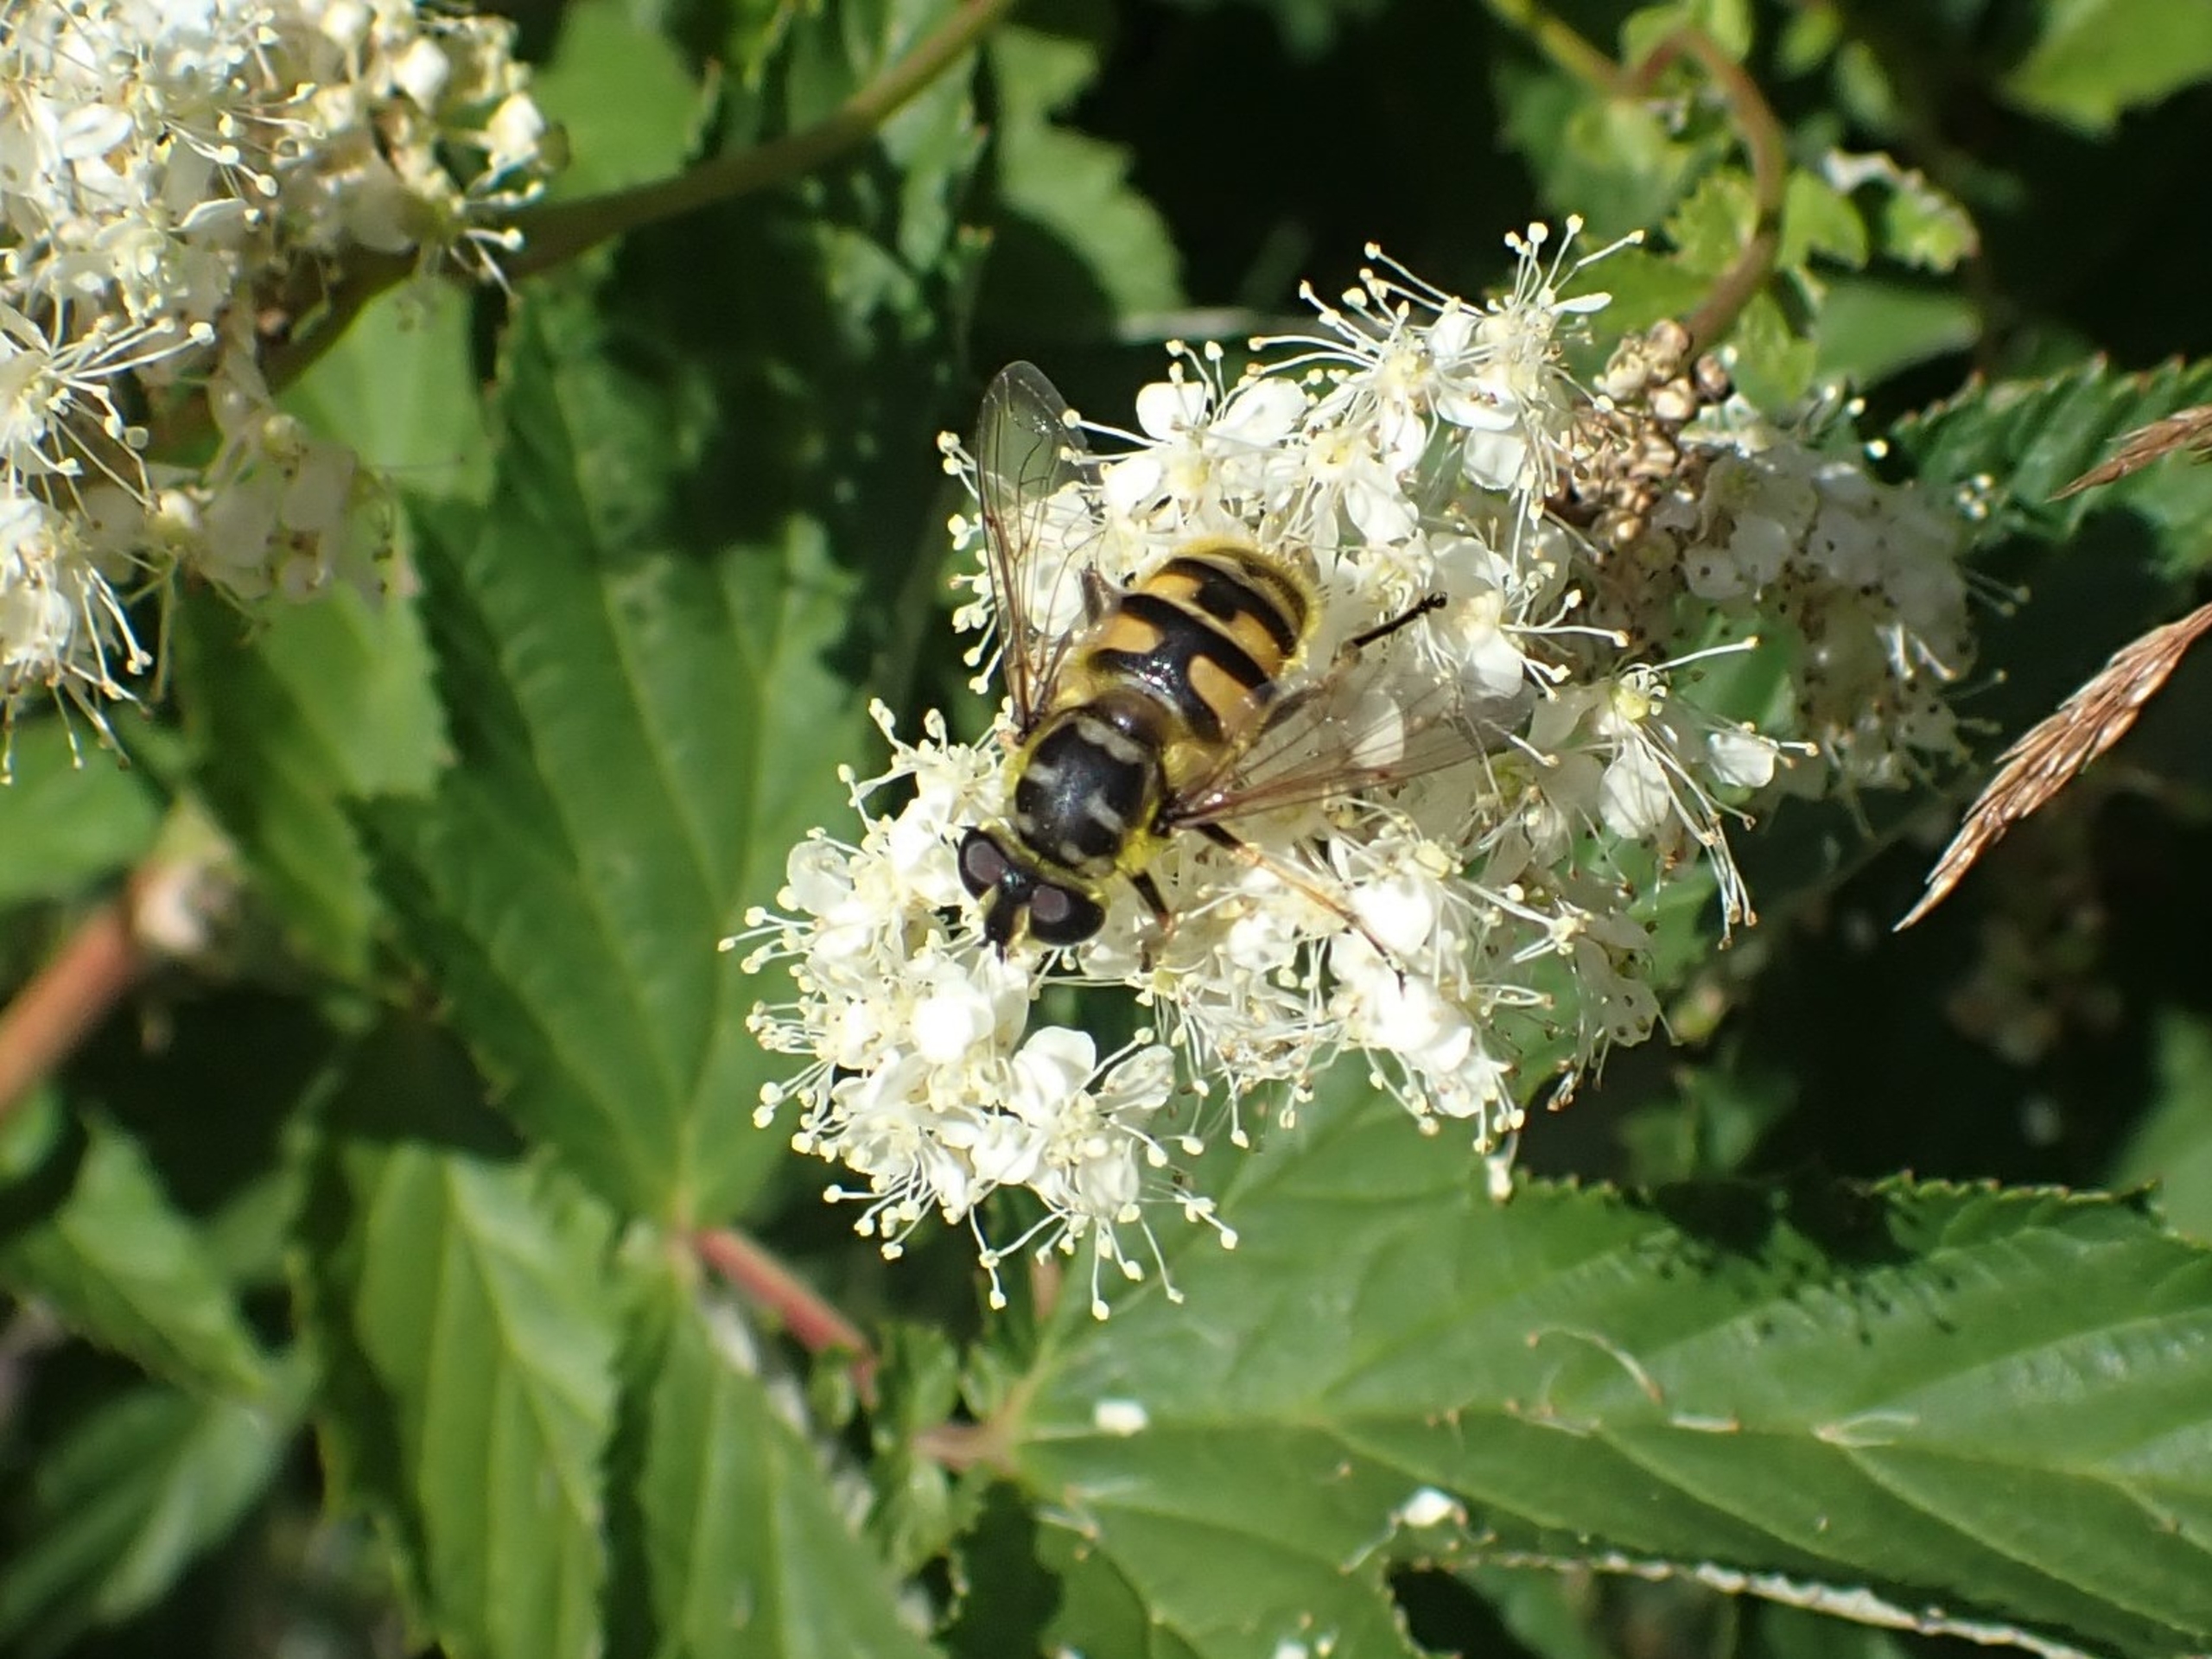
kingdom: Animalia
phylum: Arthropoda
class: Insecta
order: Diptera
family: Syrphidae
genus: Myathropa
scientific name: Myathropa florea
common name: Dødningehoved-svirreflue
